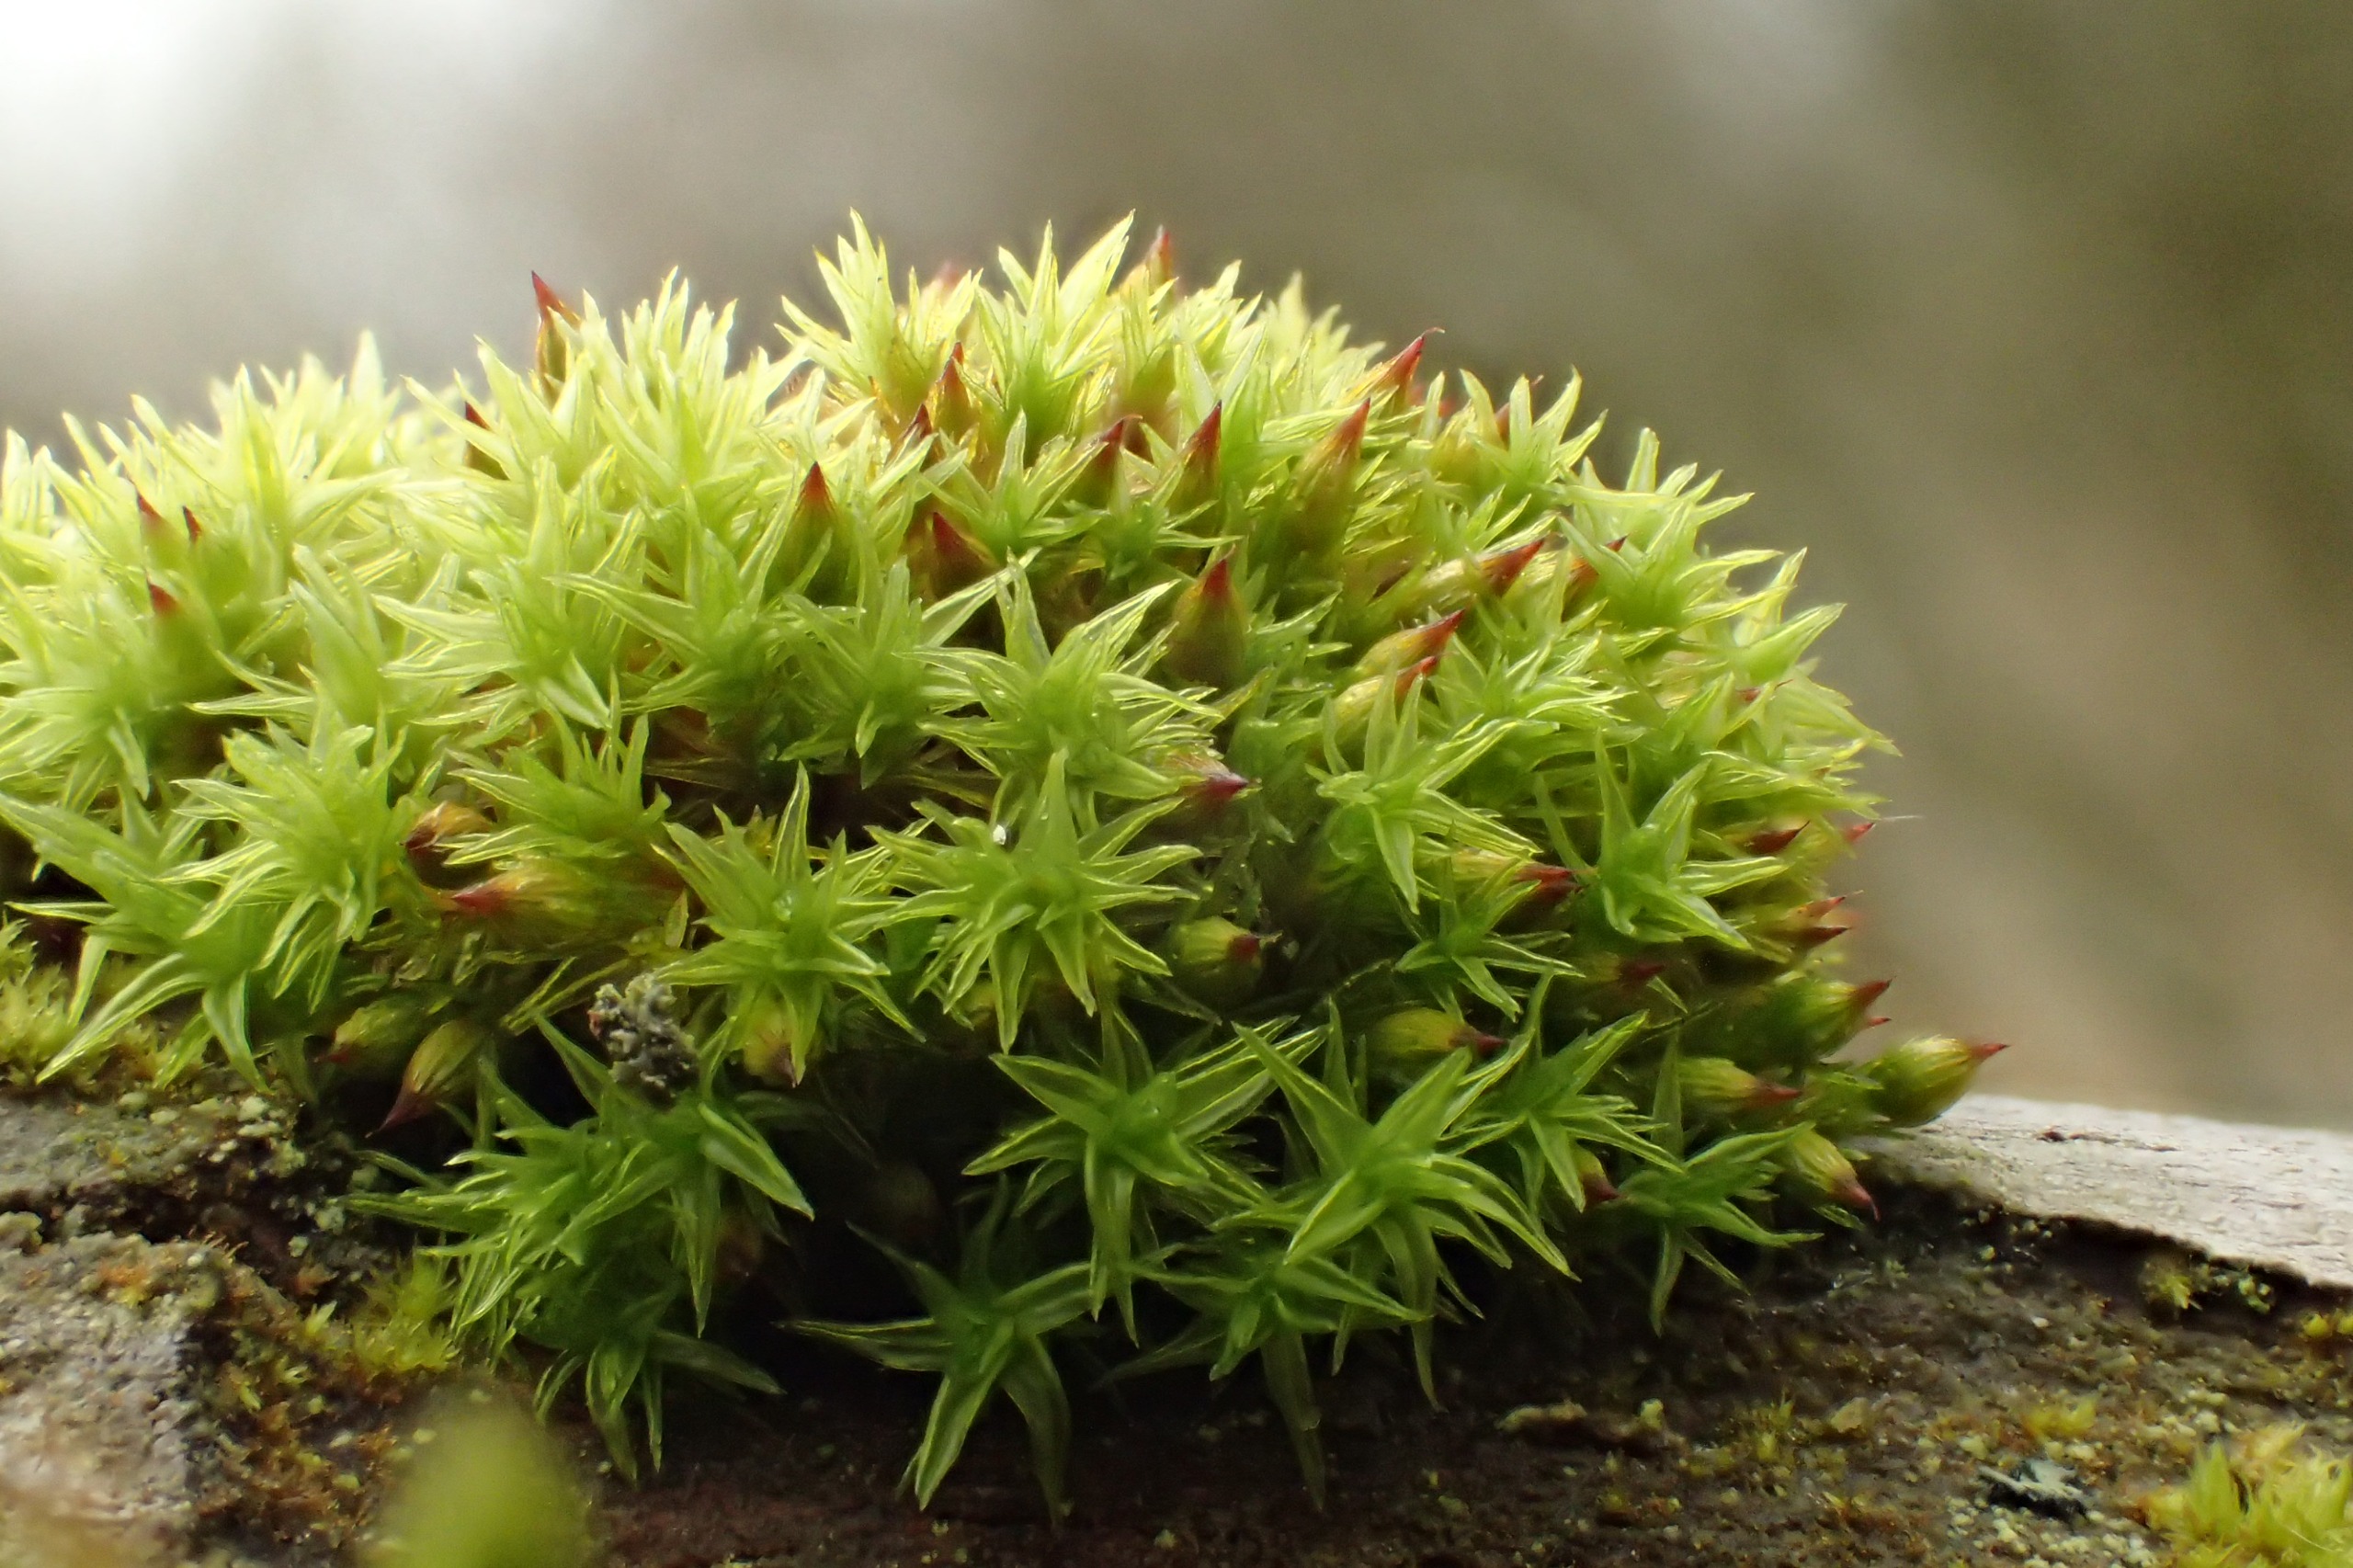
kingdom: Plantae
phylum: Bryophyta
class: Bryopsida
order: Orthotrichales
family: Orthotrichaceae
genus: Orthotrichum
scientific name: Orthotrichum stramineum
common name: Strågul furehætte
